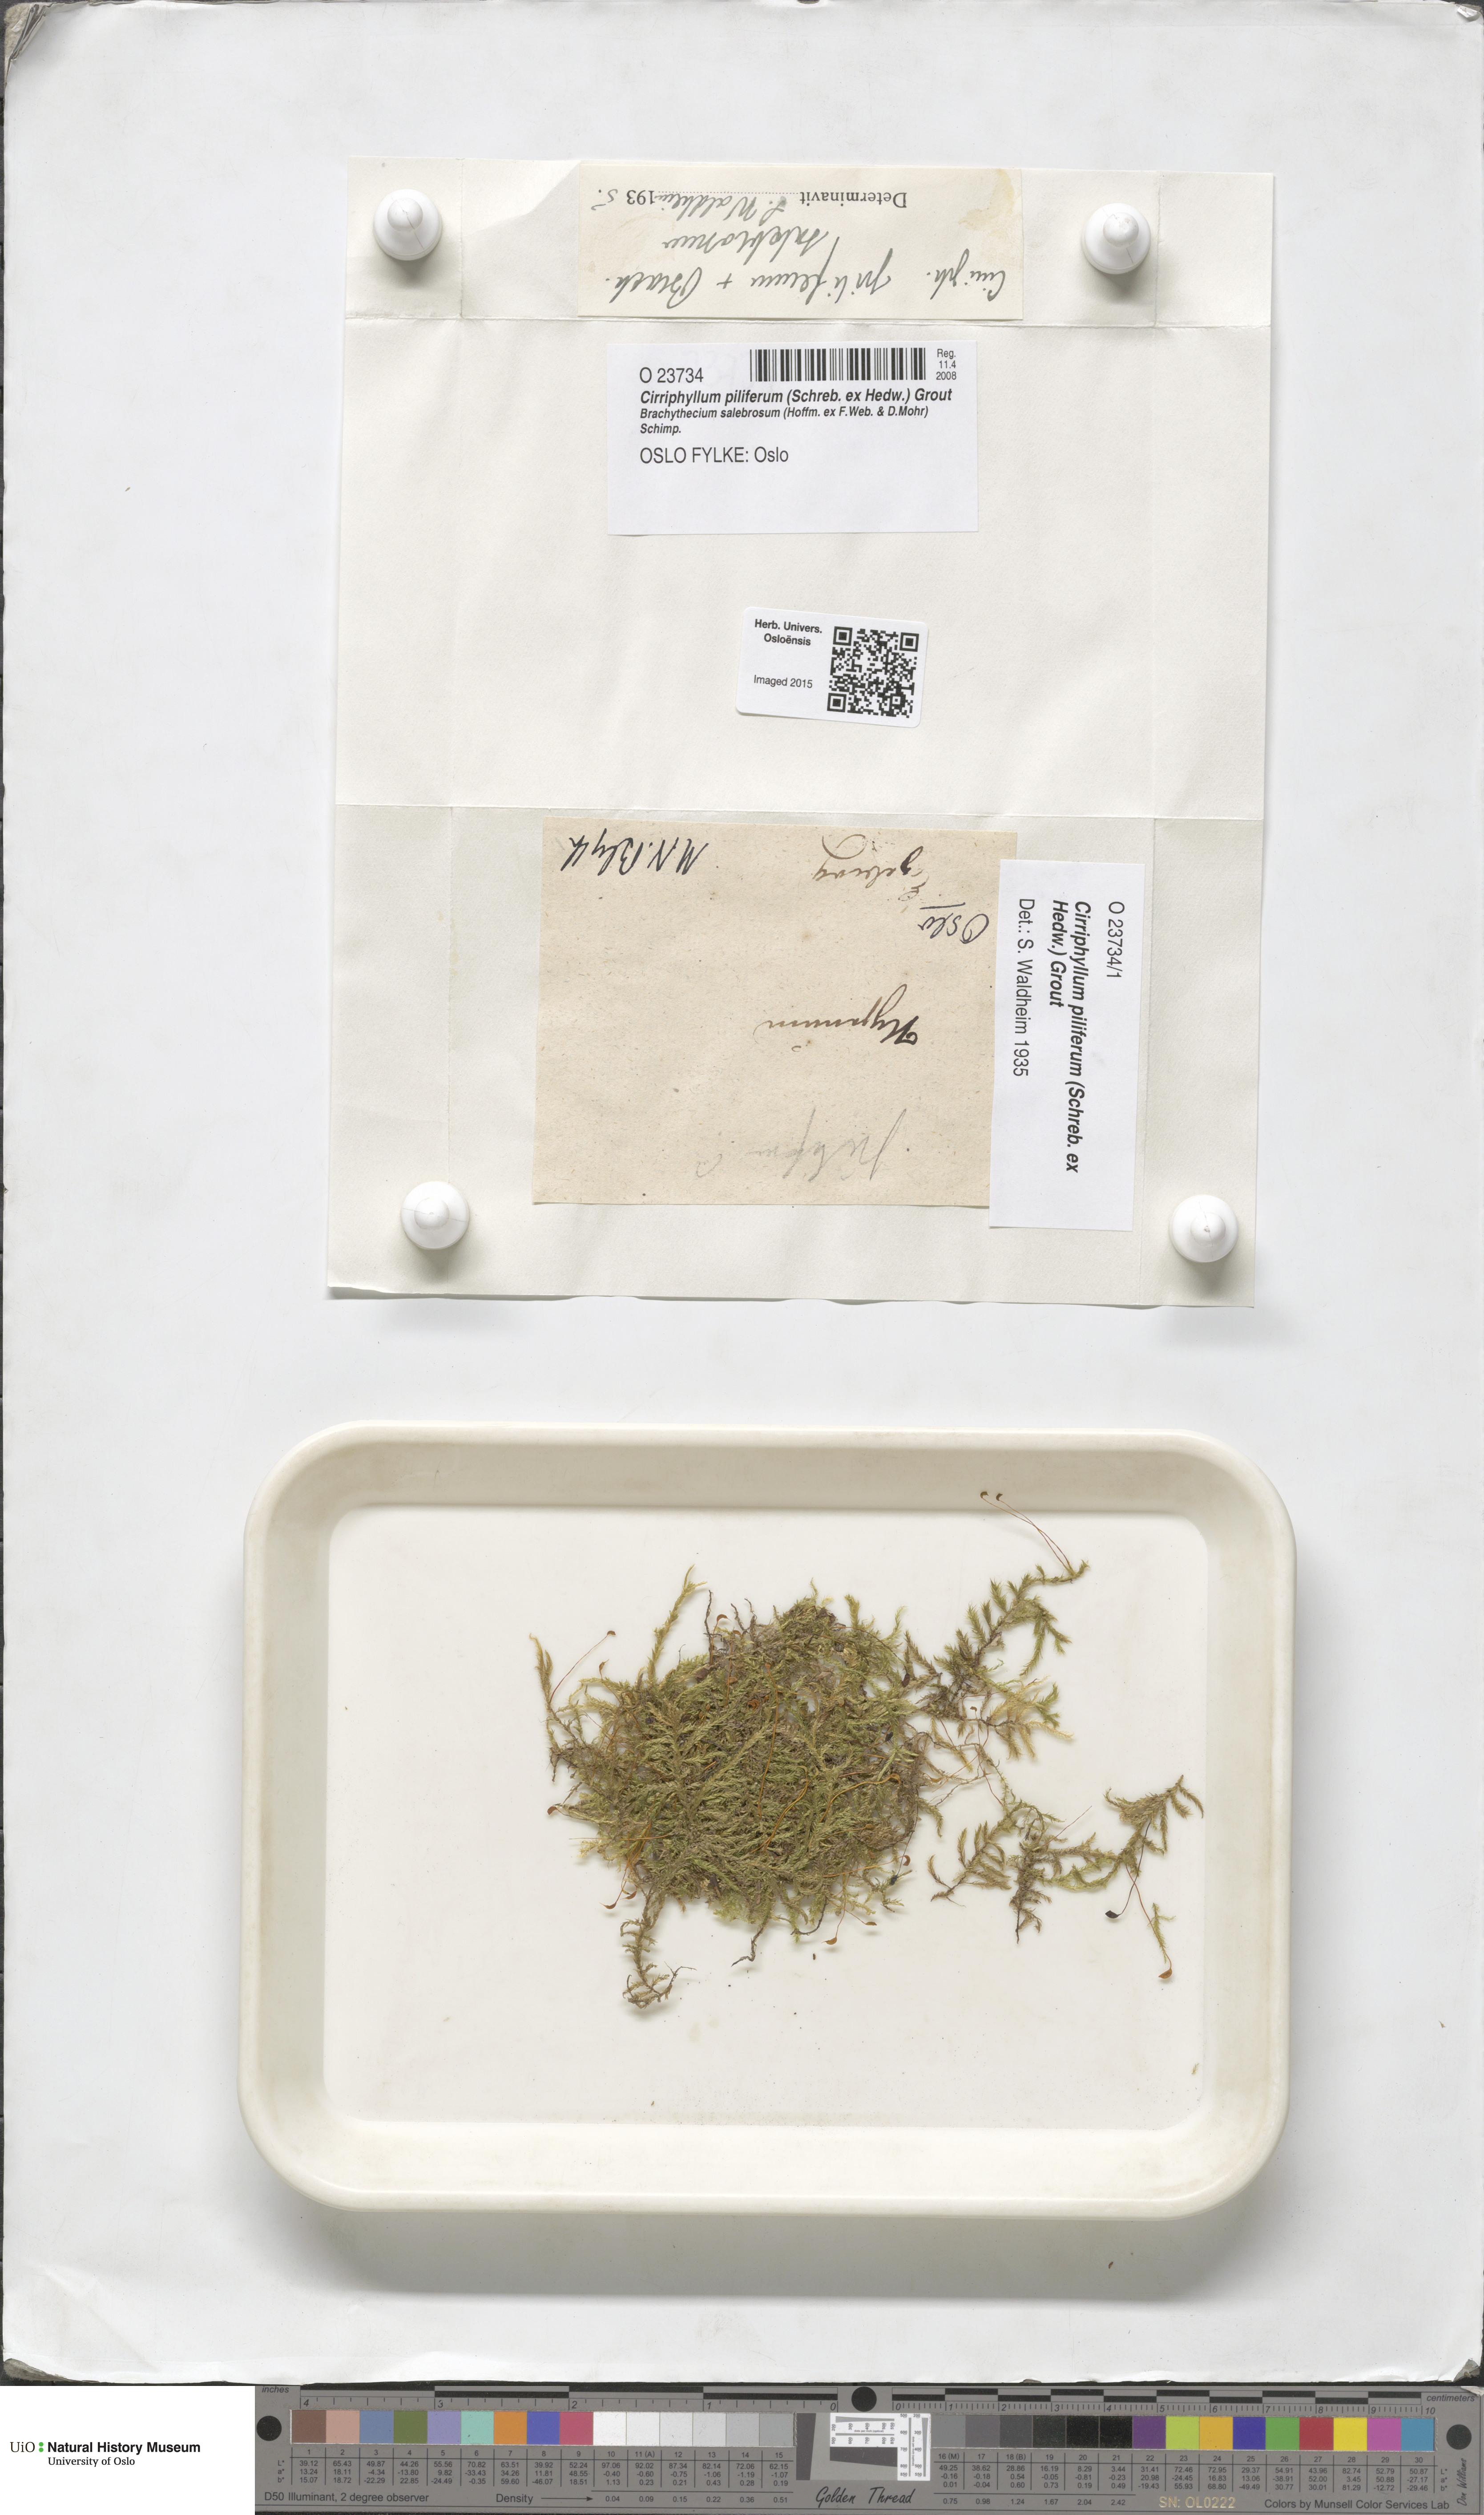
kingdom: Plantae
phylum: Bryophyta
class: Bryopsida
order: Hypnales
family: Brachytheciaceae
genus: Cirriphyllum
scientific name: Cirriphyllum piliferum
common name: Hair-pointed moss
